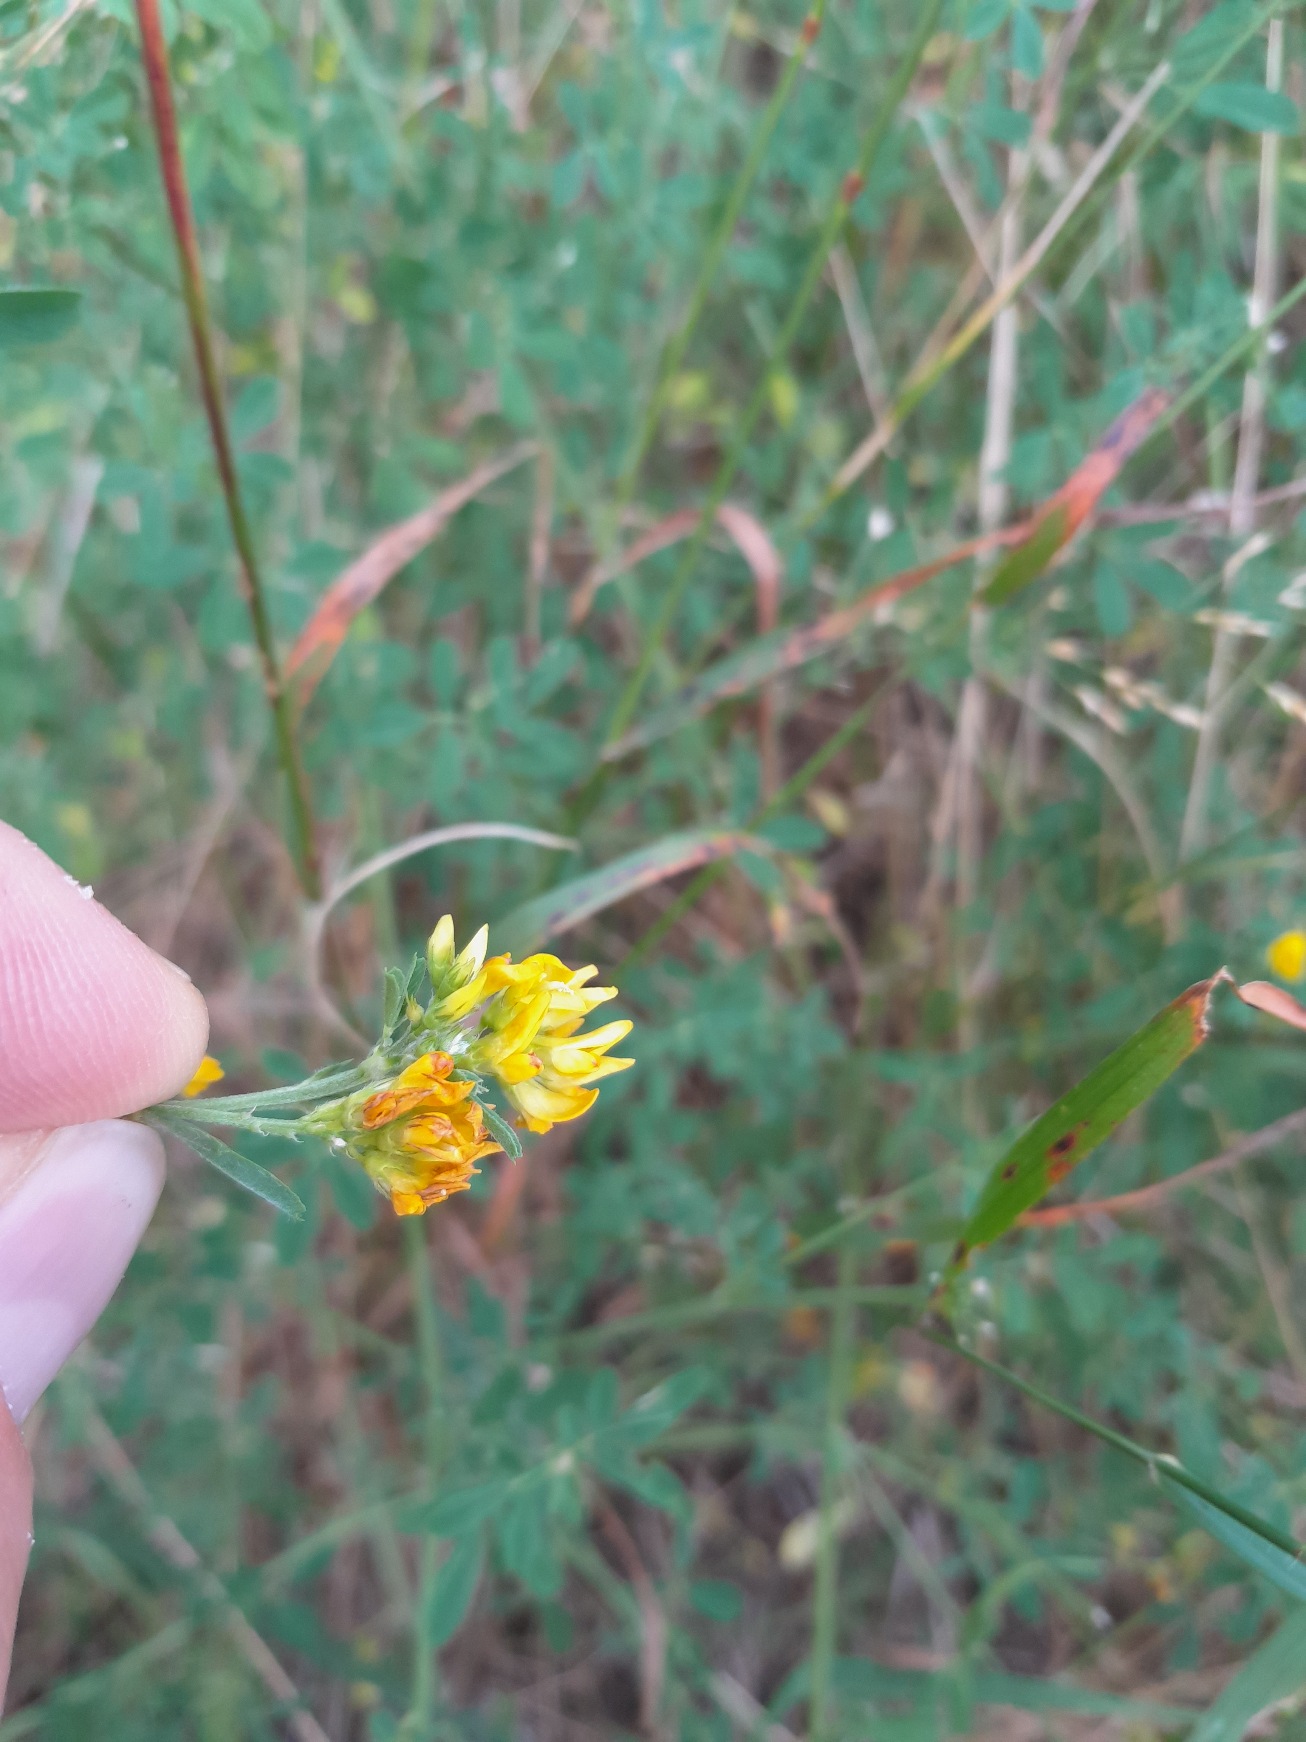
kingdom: Plantae
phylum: Tracheophyta
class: Magnoliopsida
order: Fabales
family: Fabaceae
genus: Medicago
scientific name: Medicago falcata
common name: Segl-sneglebælg
